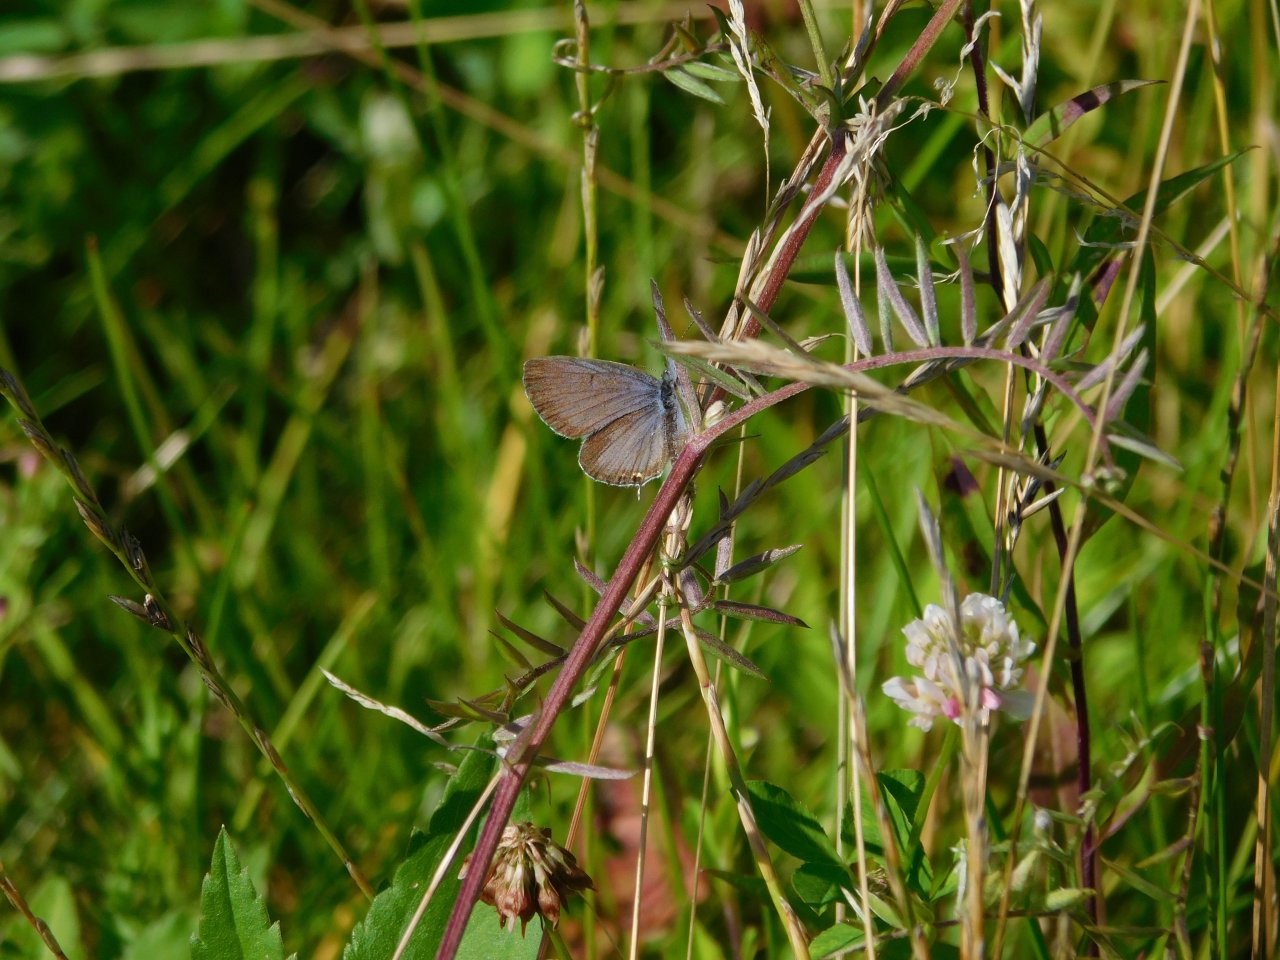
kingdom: Animalia
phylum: Arthropoda
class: Insecta
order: Lepidoptera
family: Lycaenidae
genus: Elkalyce
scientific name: Elkalyce comyntas
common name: Eastern Tailed-Blue
